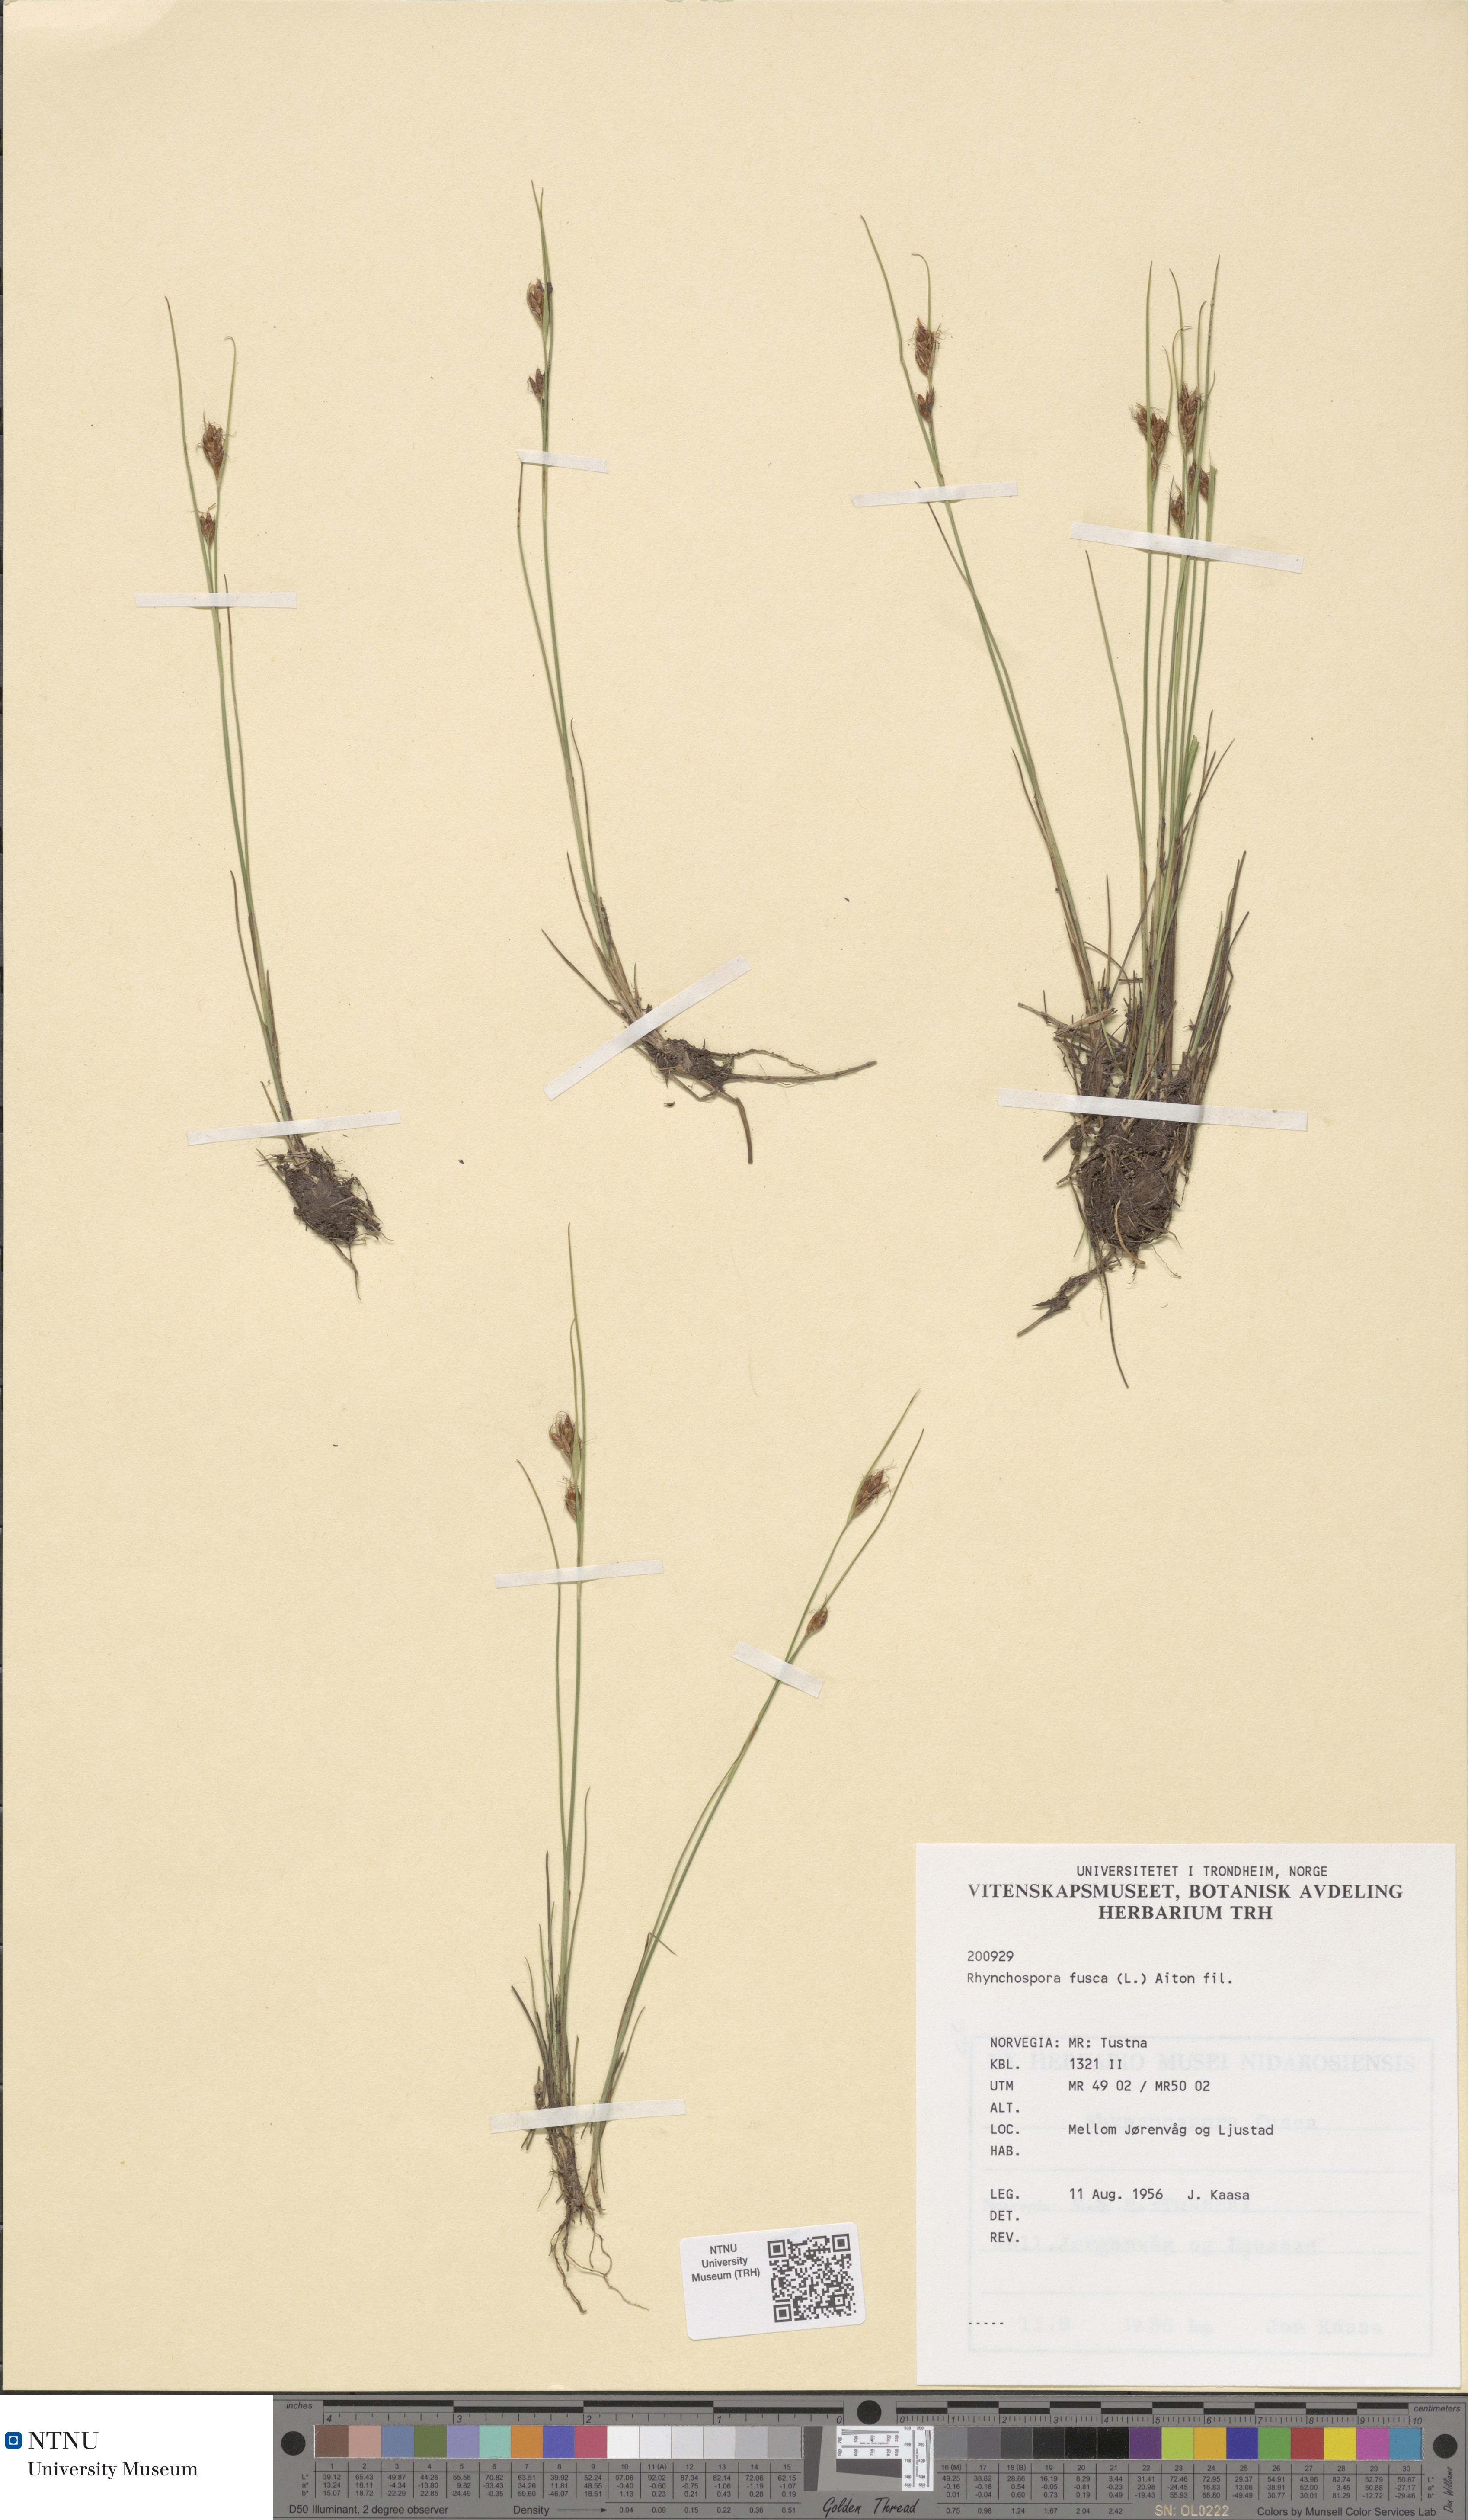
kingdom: Plantae
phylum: Tracheophyta
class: Liliopsida
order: Poales
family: Cyperaceae
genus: Rhynchospora
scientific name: Rhynchospora fusca
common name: Brown beak-sedge
